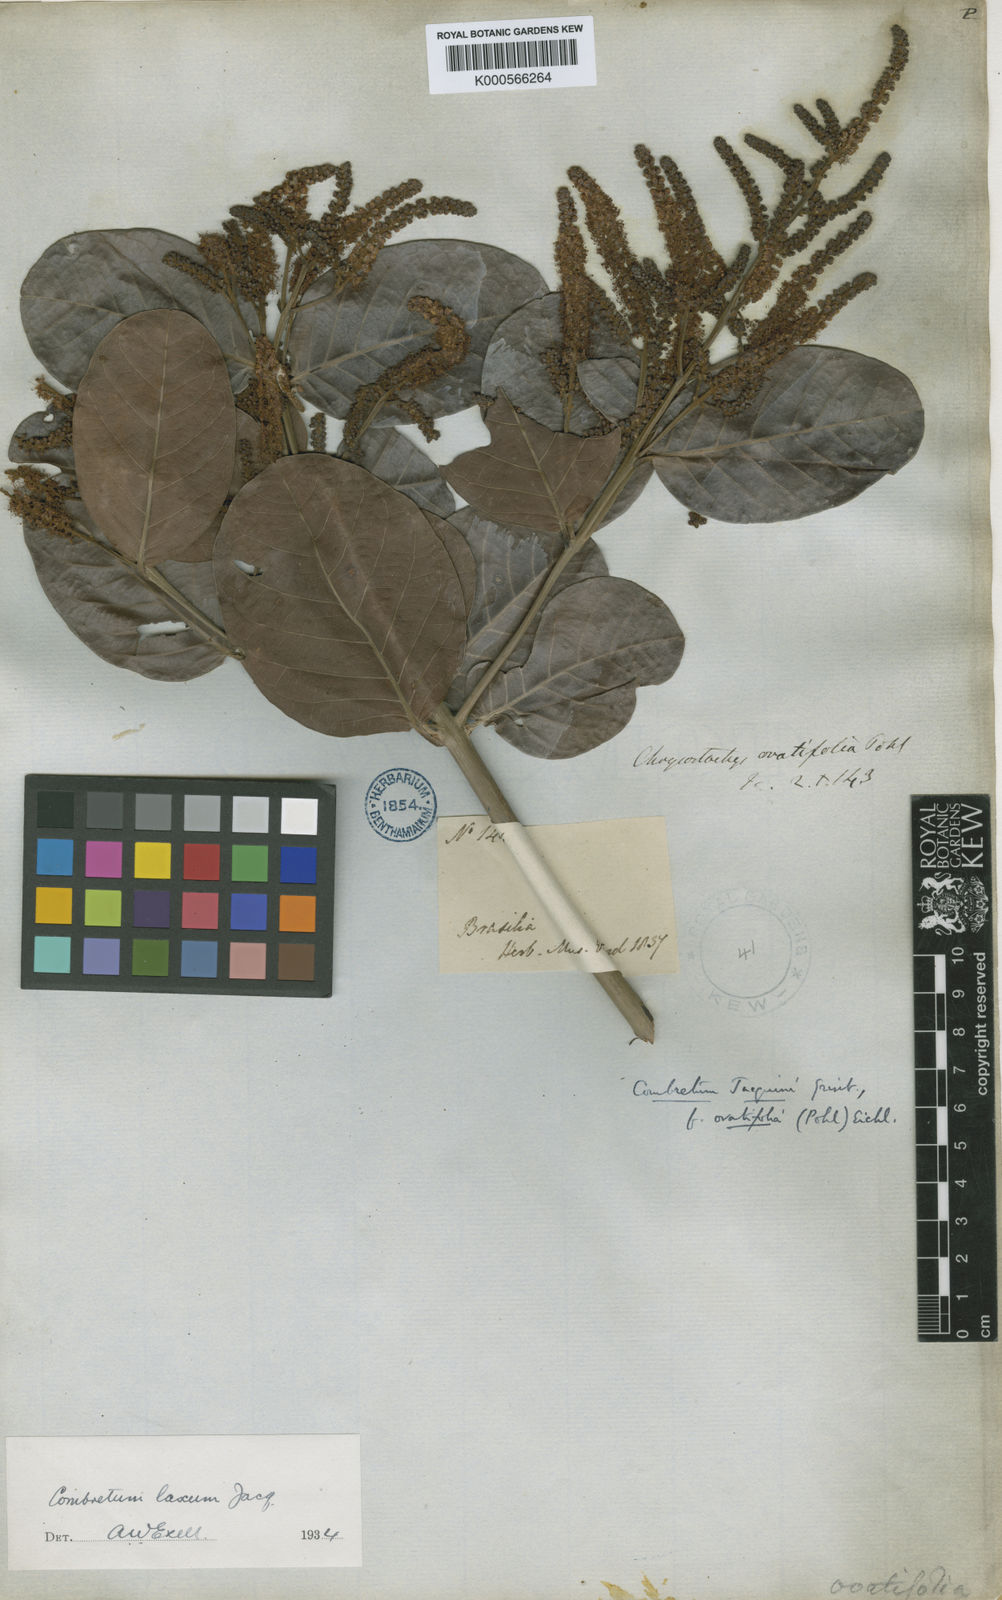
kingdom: Plantae
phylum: Tracheophyta
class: Magnoliopsida
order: Myrtales
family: Combretaceae
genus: Combretum
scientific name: Combretum laxum
